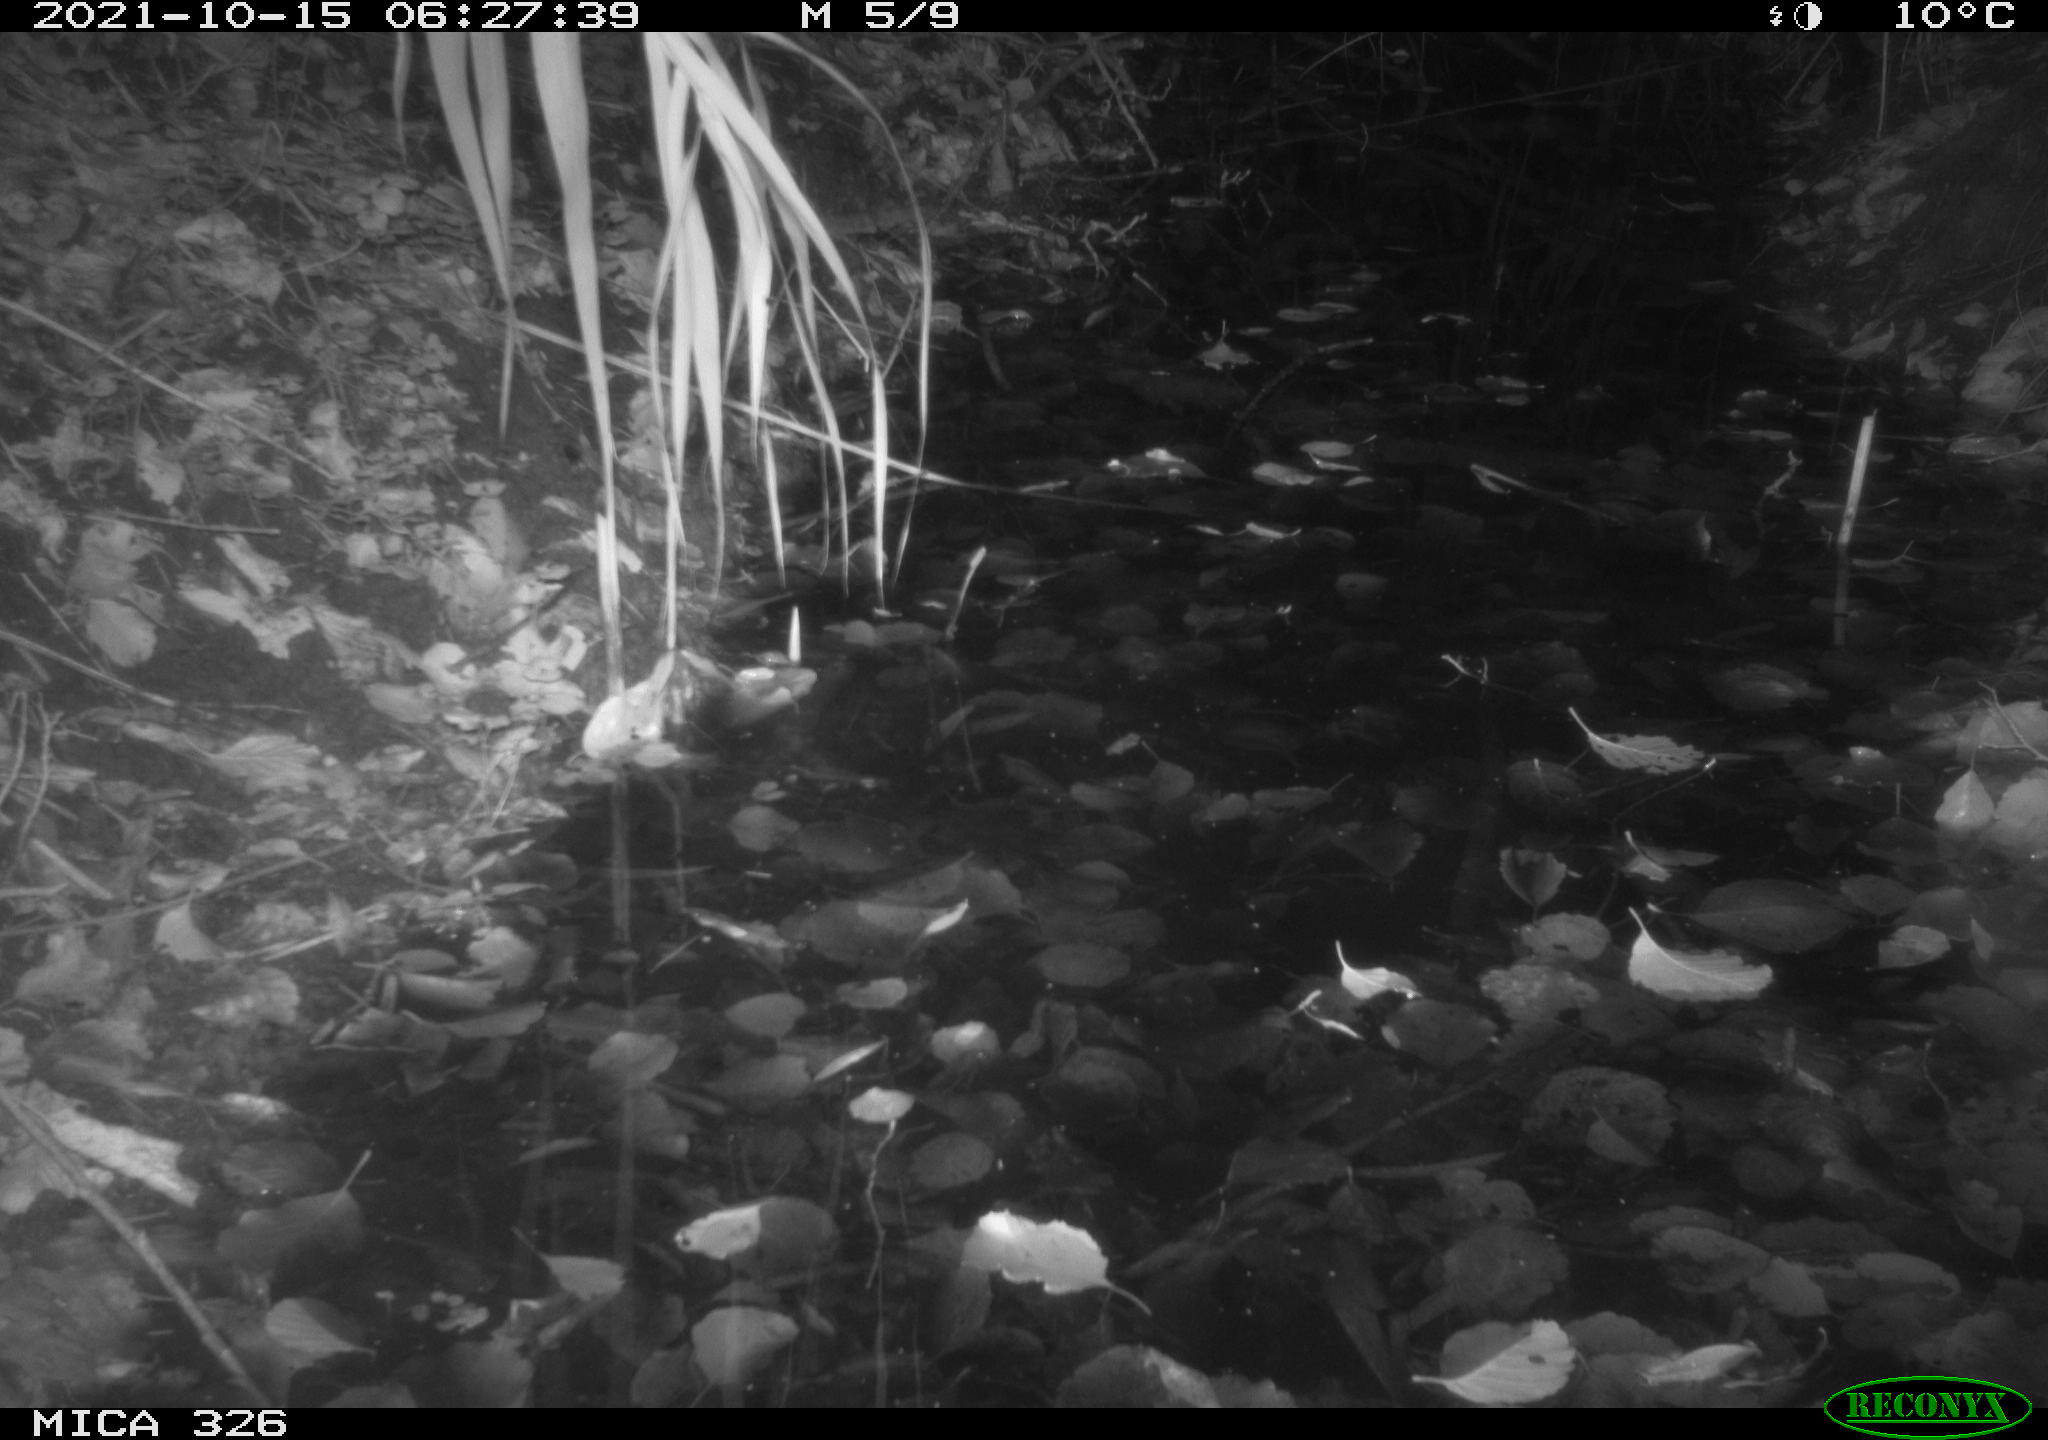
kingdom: Animalia
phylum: Chordata
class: Mammalia
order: Rodentia
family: Muridae
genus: Rattus
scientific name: Rattus norvegicus
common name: Brown rat
